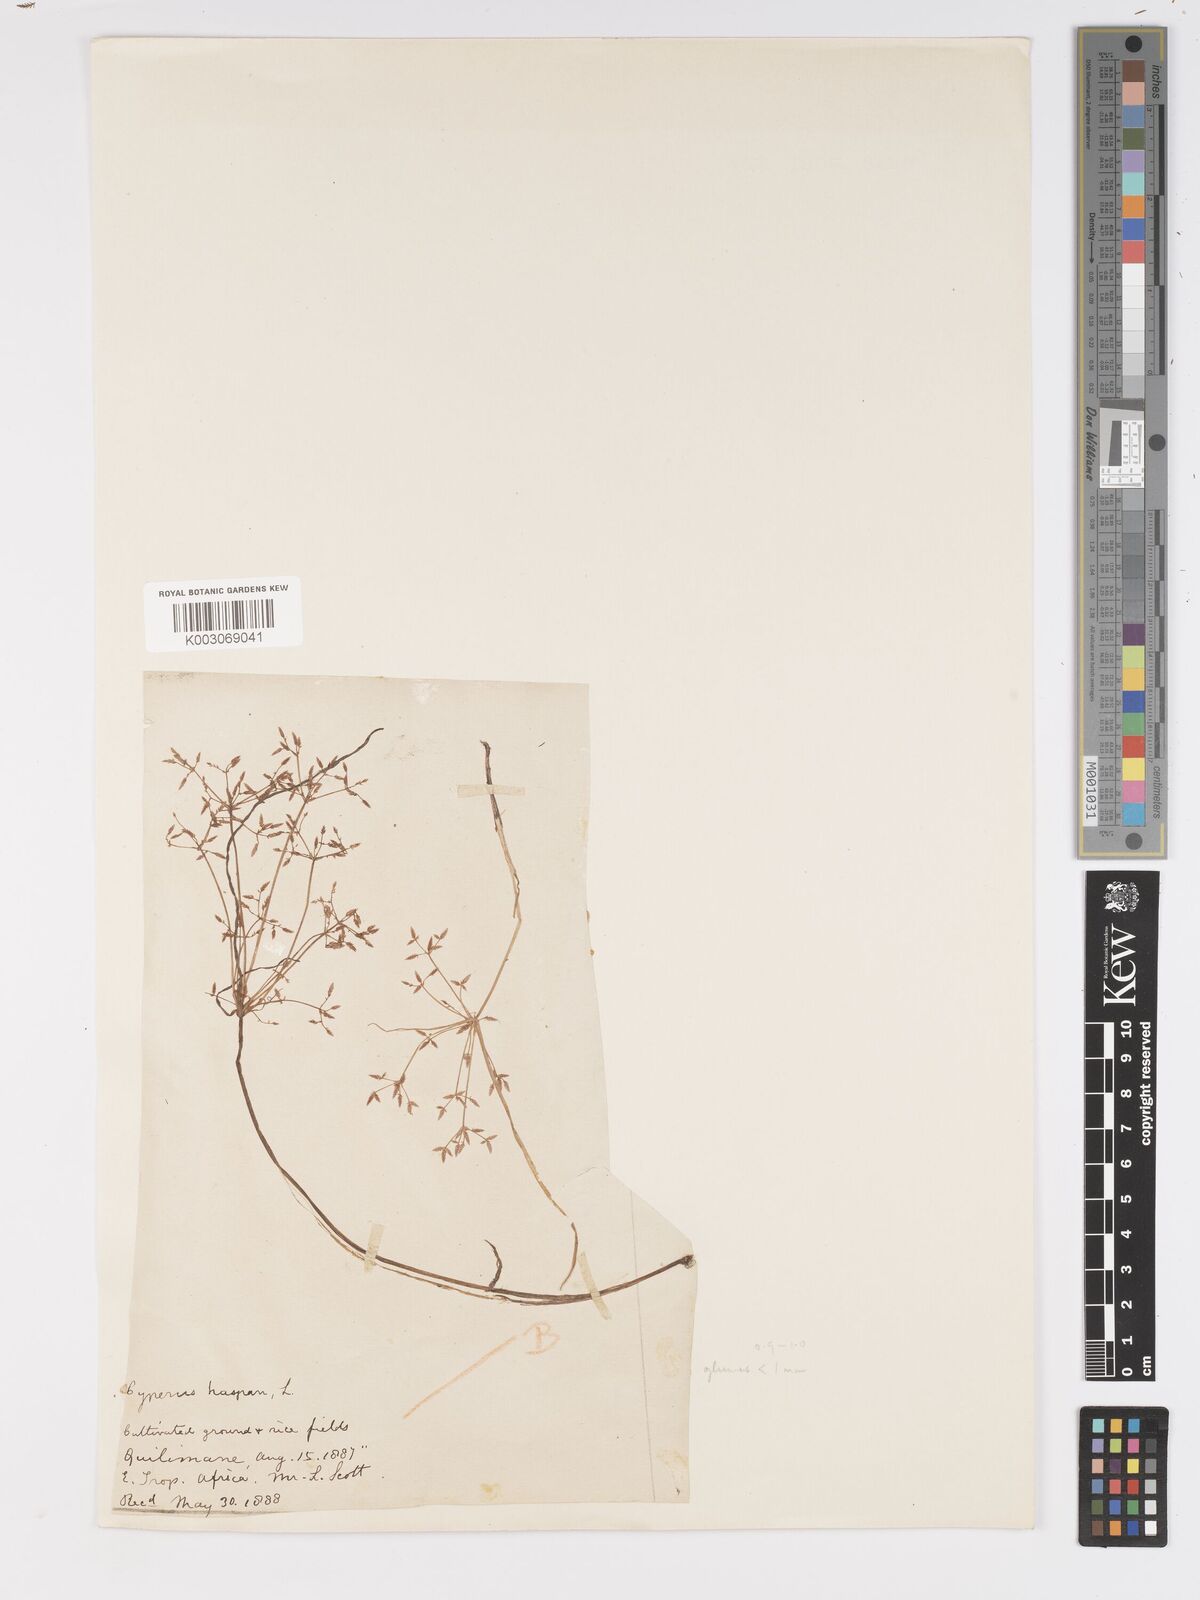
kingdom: Plantae
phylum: Tracheophyta
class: Liliopsida
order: Poales
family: Cyperaceae
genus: Cyperus
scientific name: Cyperus haspan
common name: Haspan flatsedge
